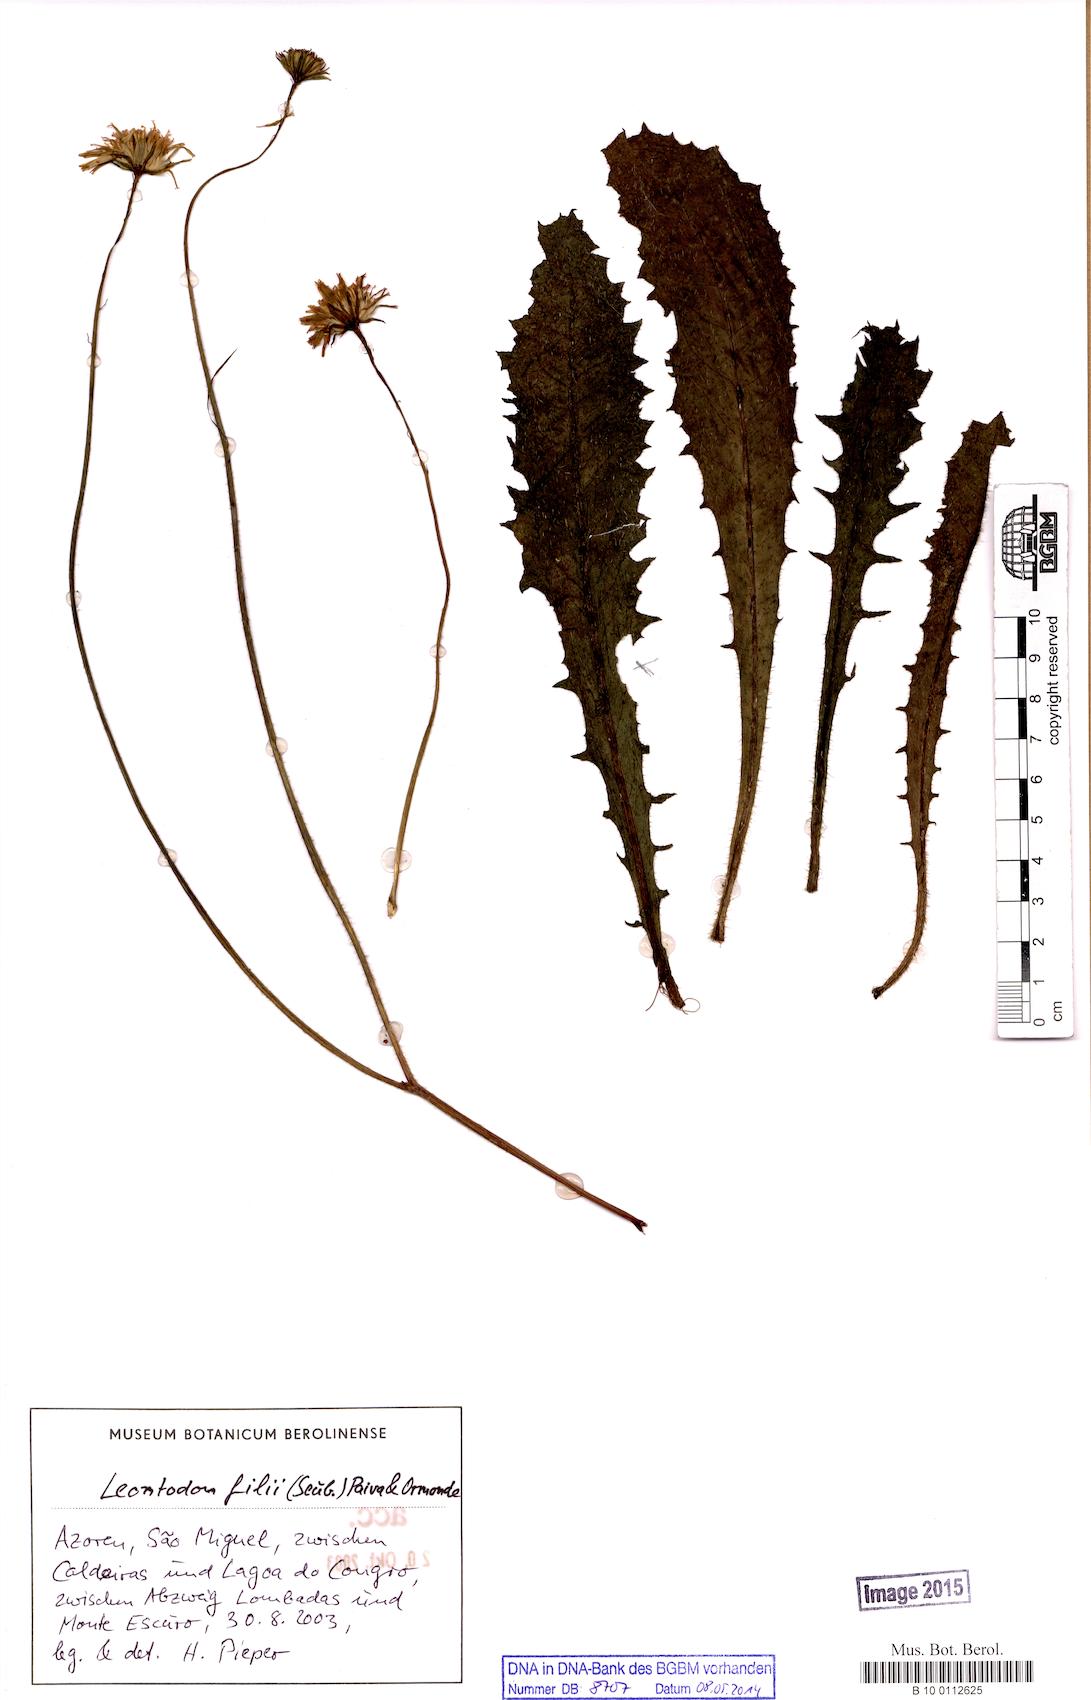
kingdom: Plantae
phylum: Tracheophyta
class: Magnoliopsida
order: Asterales
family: Asteraceae
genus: Leontodon
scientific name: Leontodon filii
